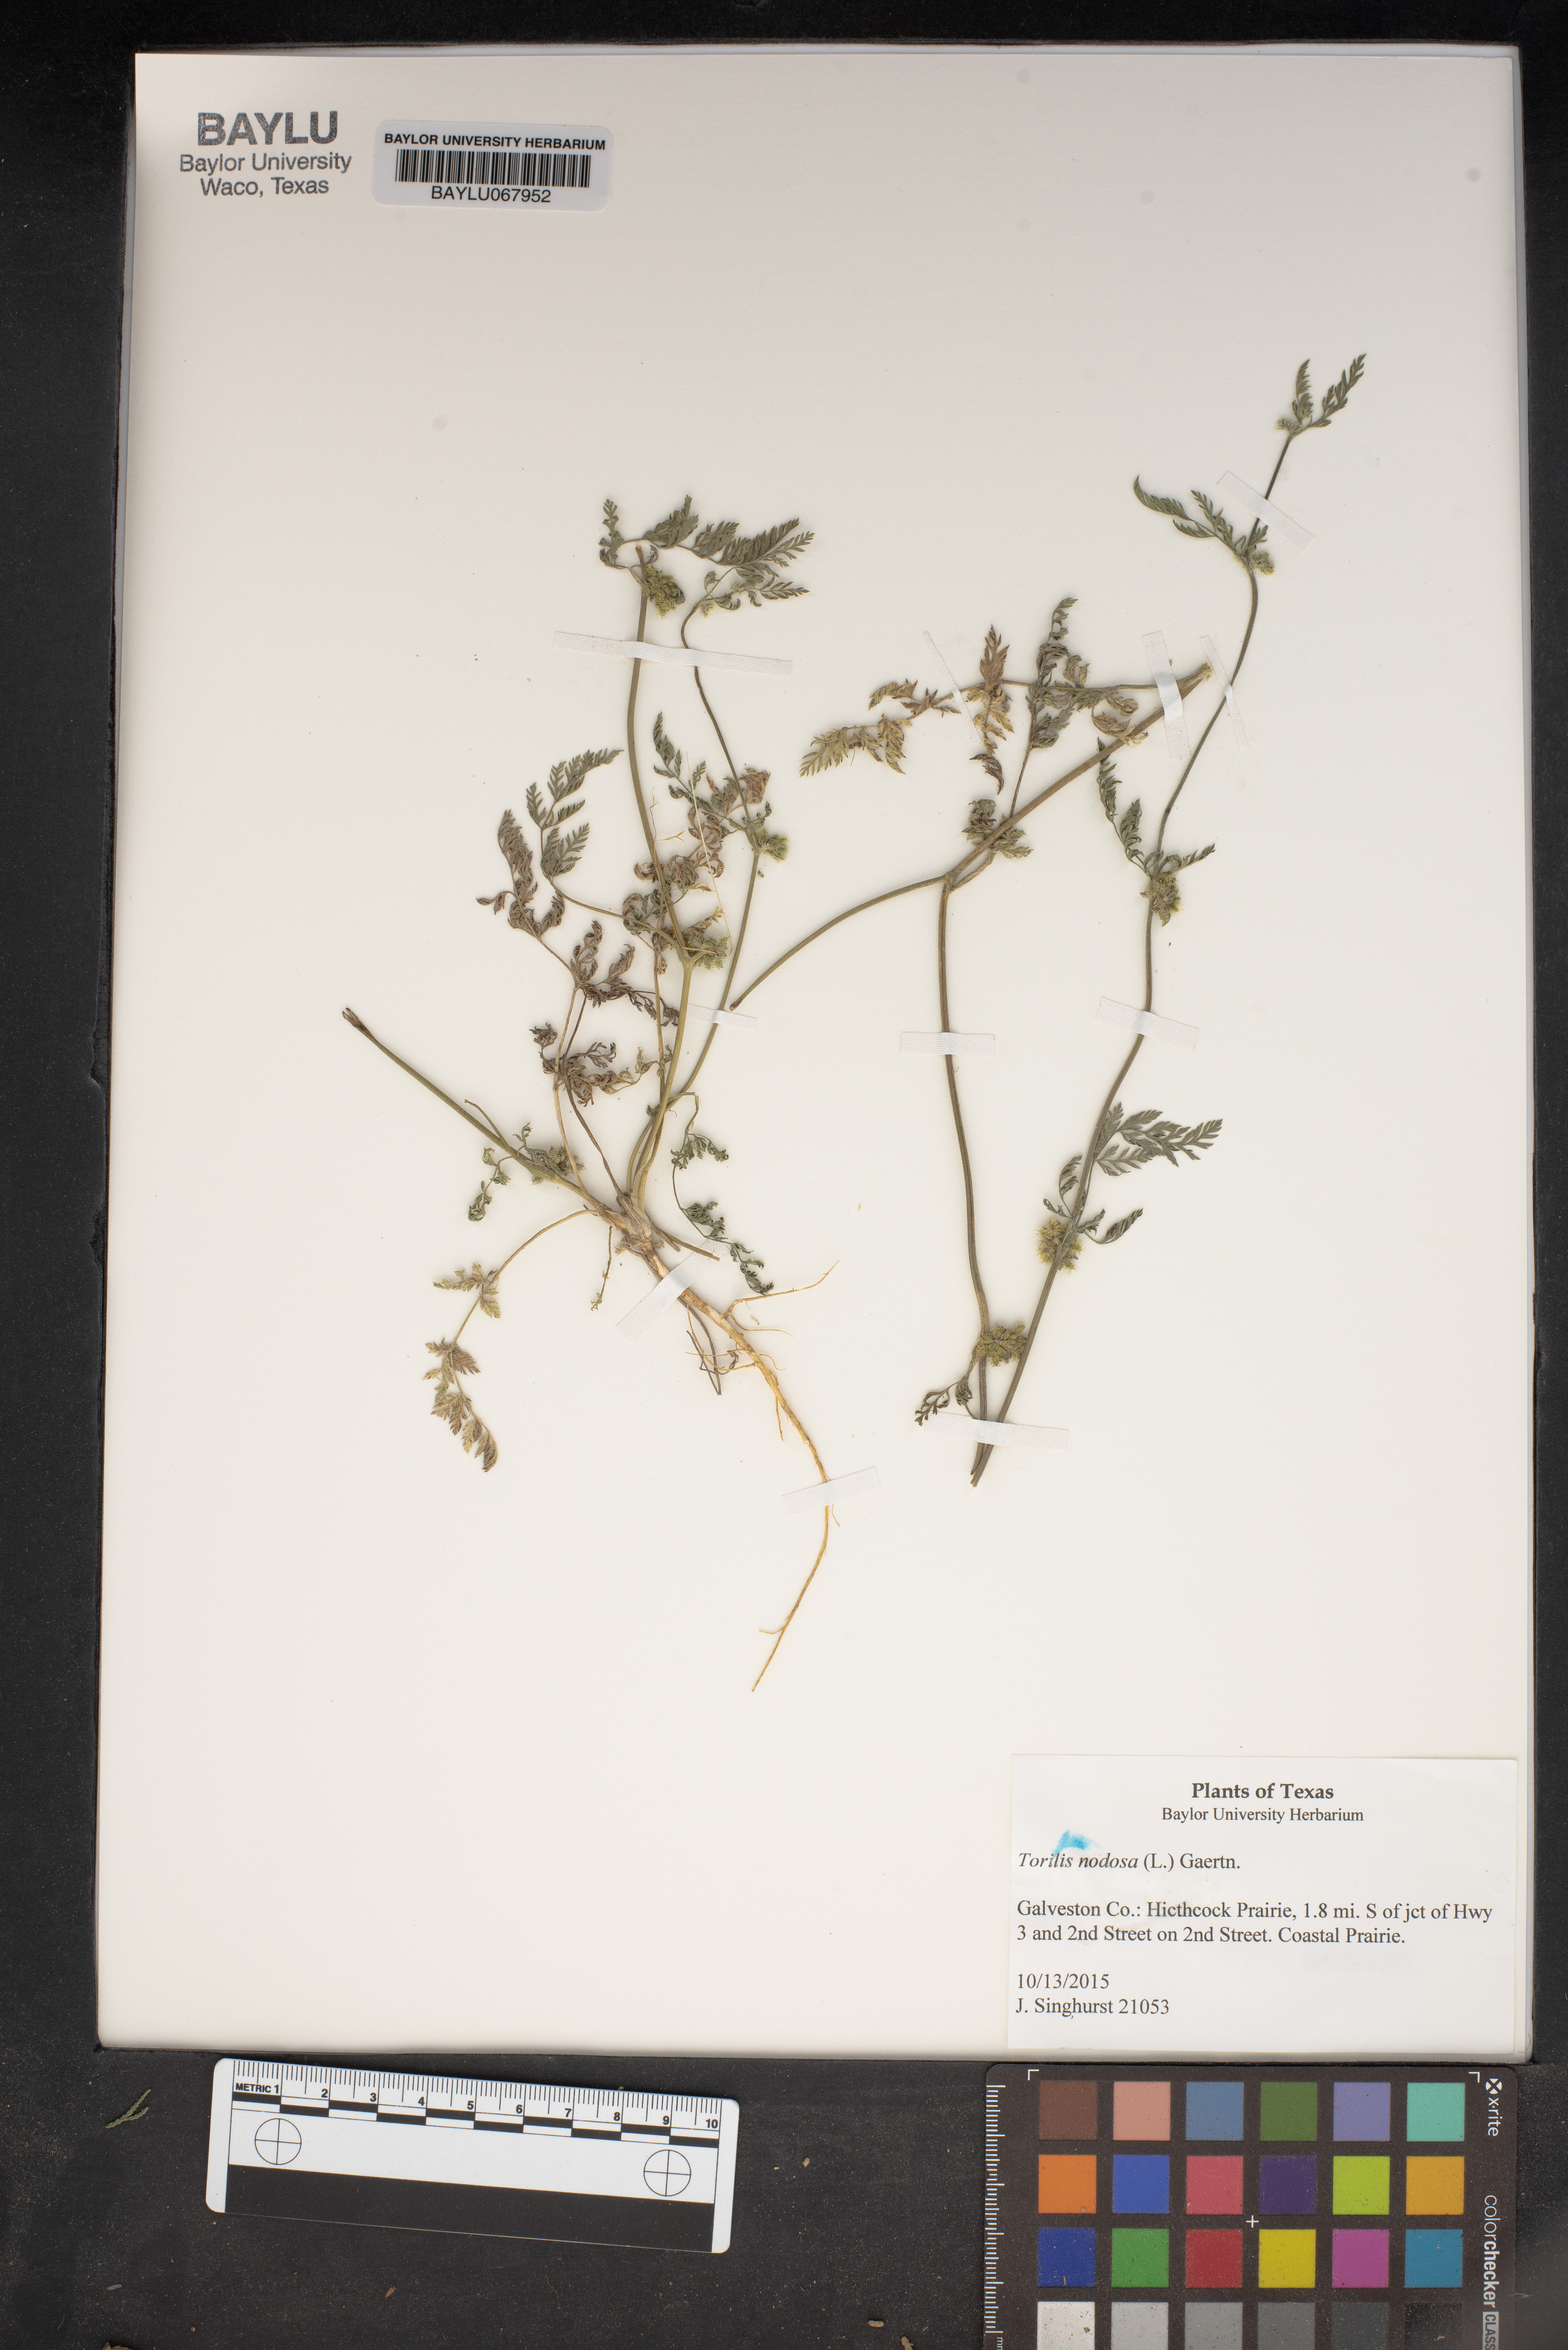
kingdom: Plantae
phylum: Tracheophyta
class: Magnoliopsida
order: Apiales
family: Apiaceae
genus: Torilis
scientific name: Torilis nodosa
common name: Knotted hedge-parsley
